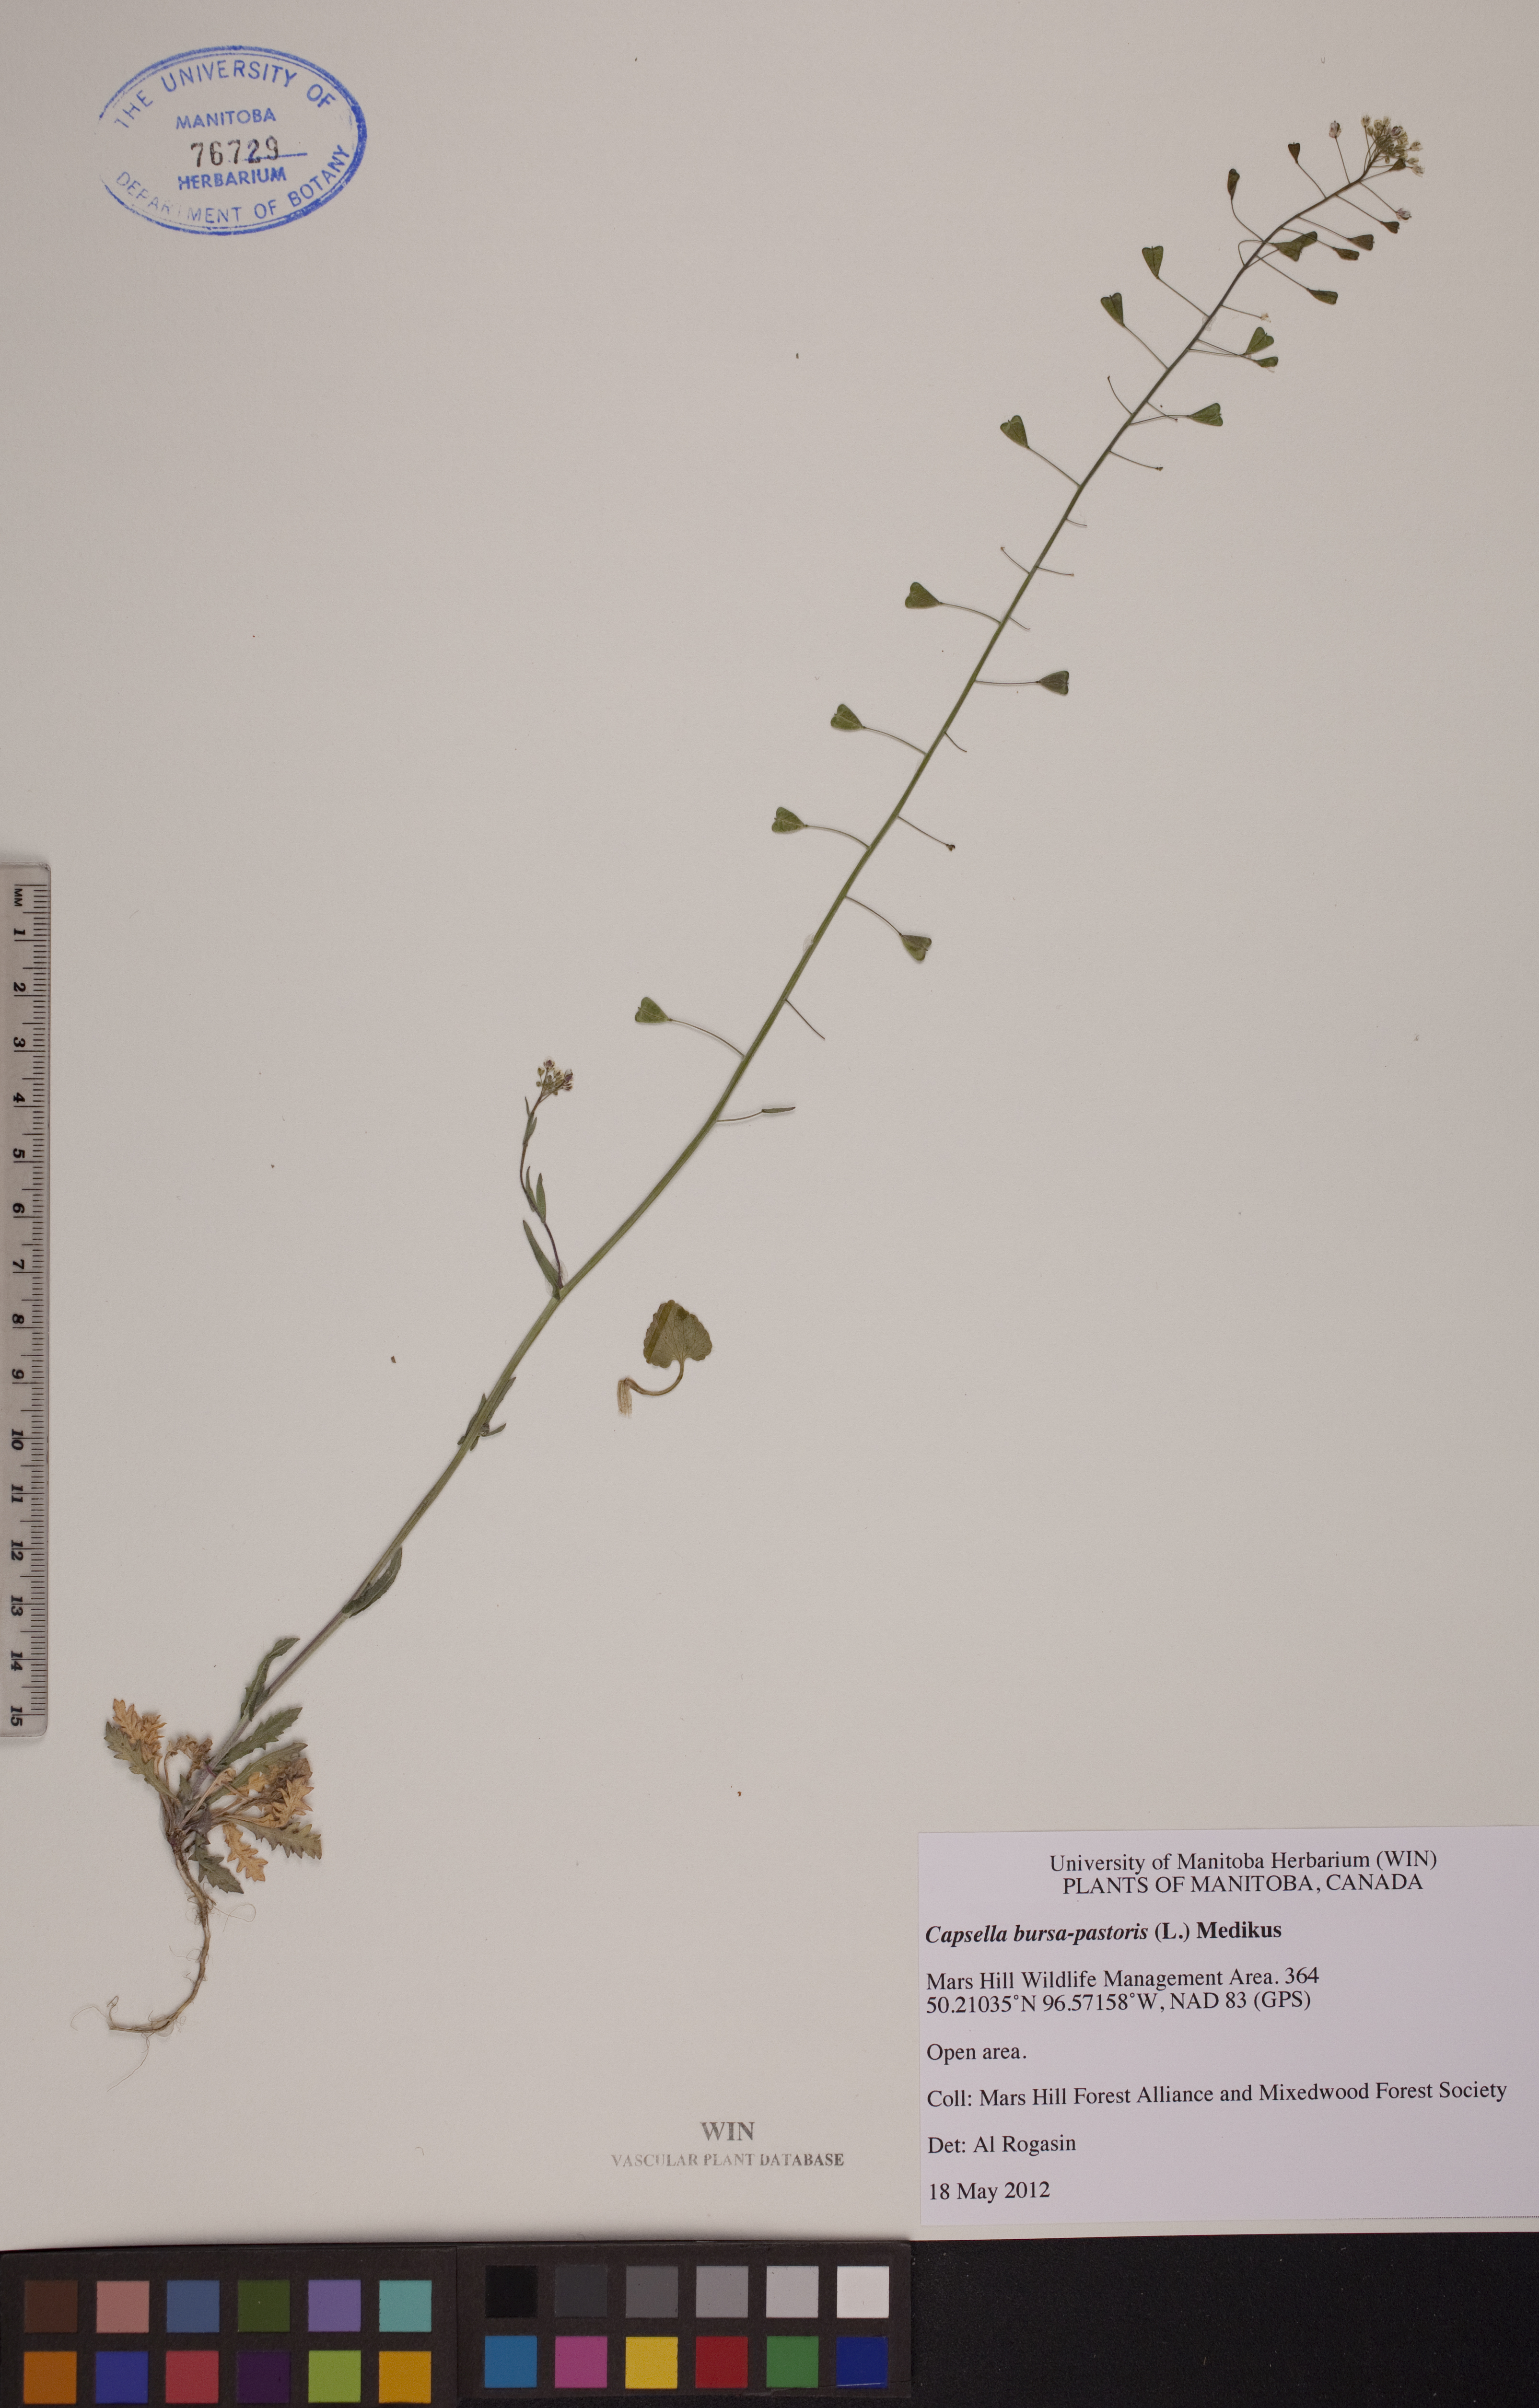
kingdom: Plantae
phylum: Tracheophyta
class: Magnoliopsida
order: Brassicales
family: Brassicaceae
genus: Capsella
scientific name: Capsella bursa-pastoris
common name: Shepherd's purse
